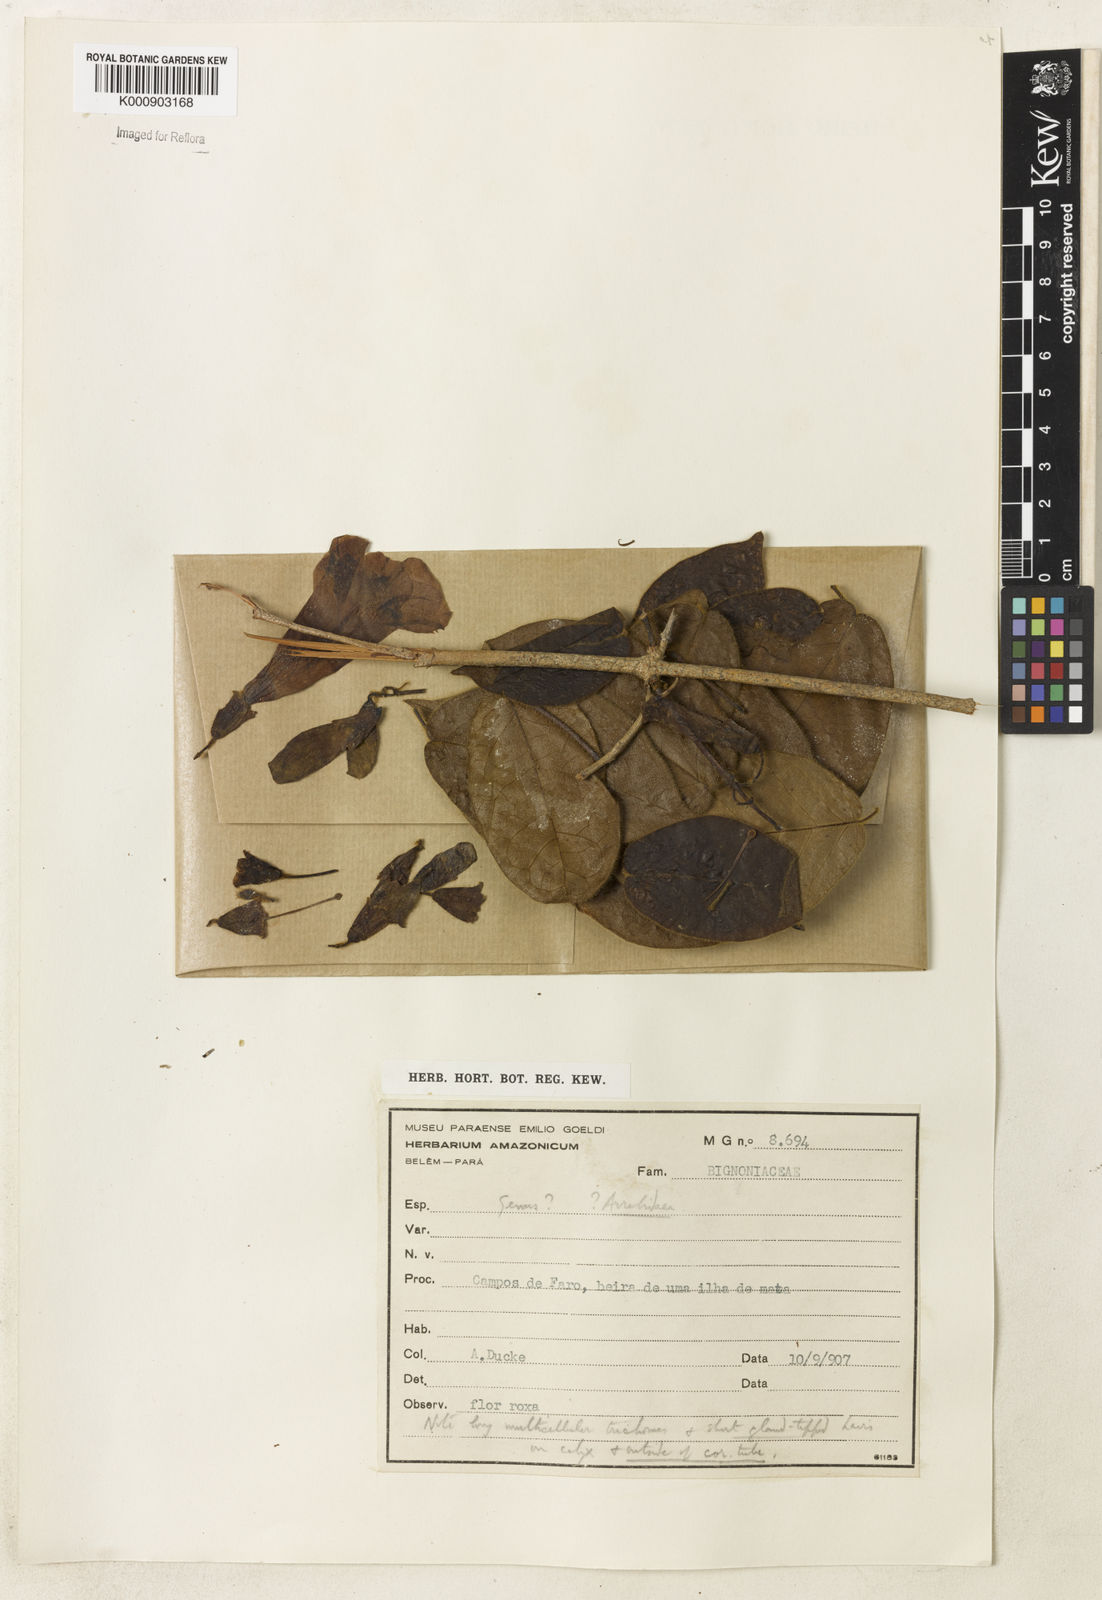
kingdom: Plantae
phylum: Tracheophyta
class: Magnoliopsida
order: Lamiales
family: Bignoniaceae
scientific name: Bignoniaceae
